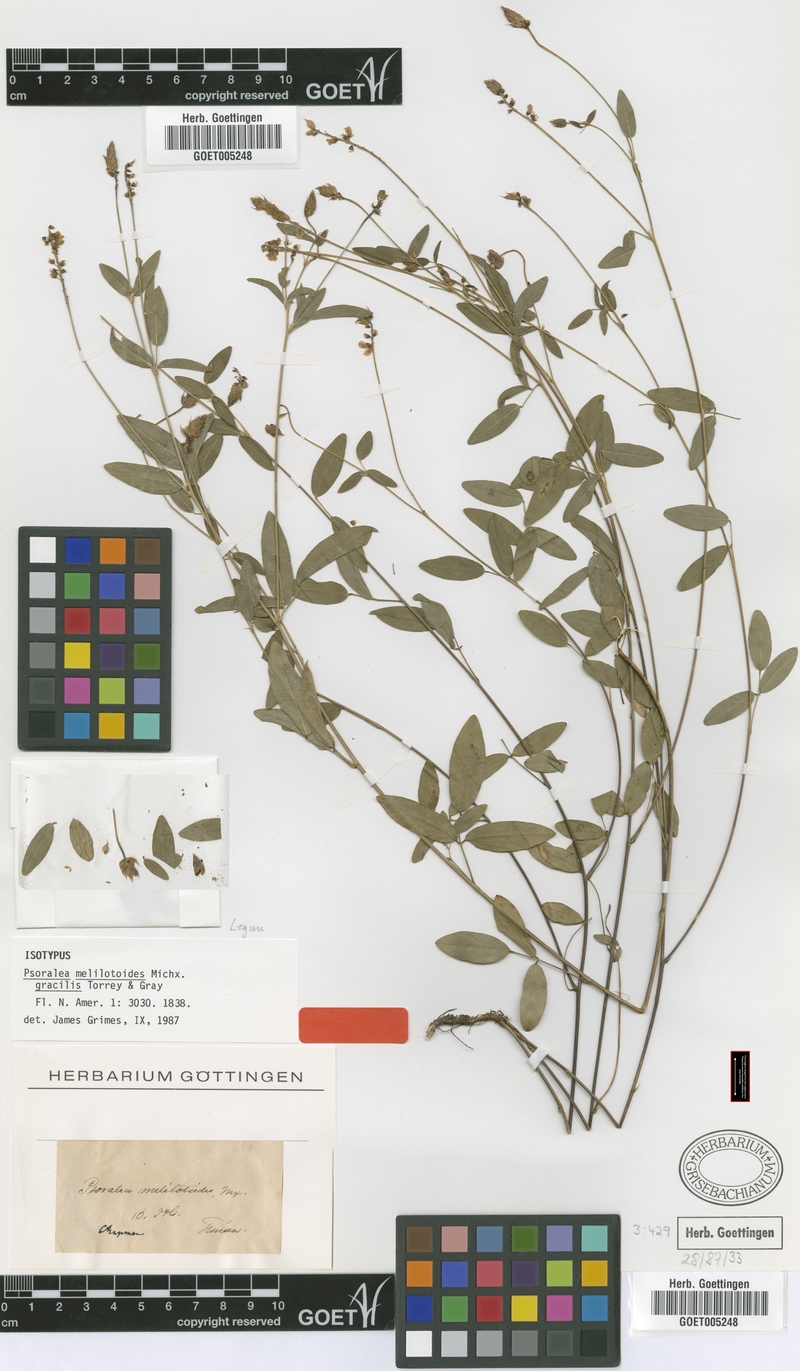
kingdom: Plantae
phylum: Tracheophyta
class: Magnoliopsida
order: Fabales
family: Fabaceae
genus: Orbexilum
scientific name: Orbexilum psoralioides
